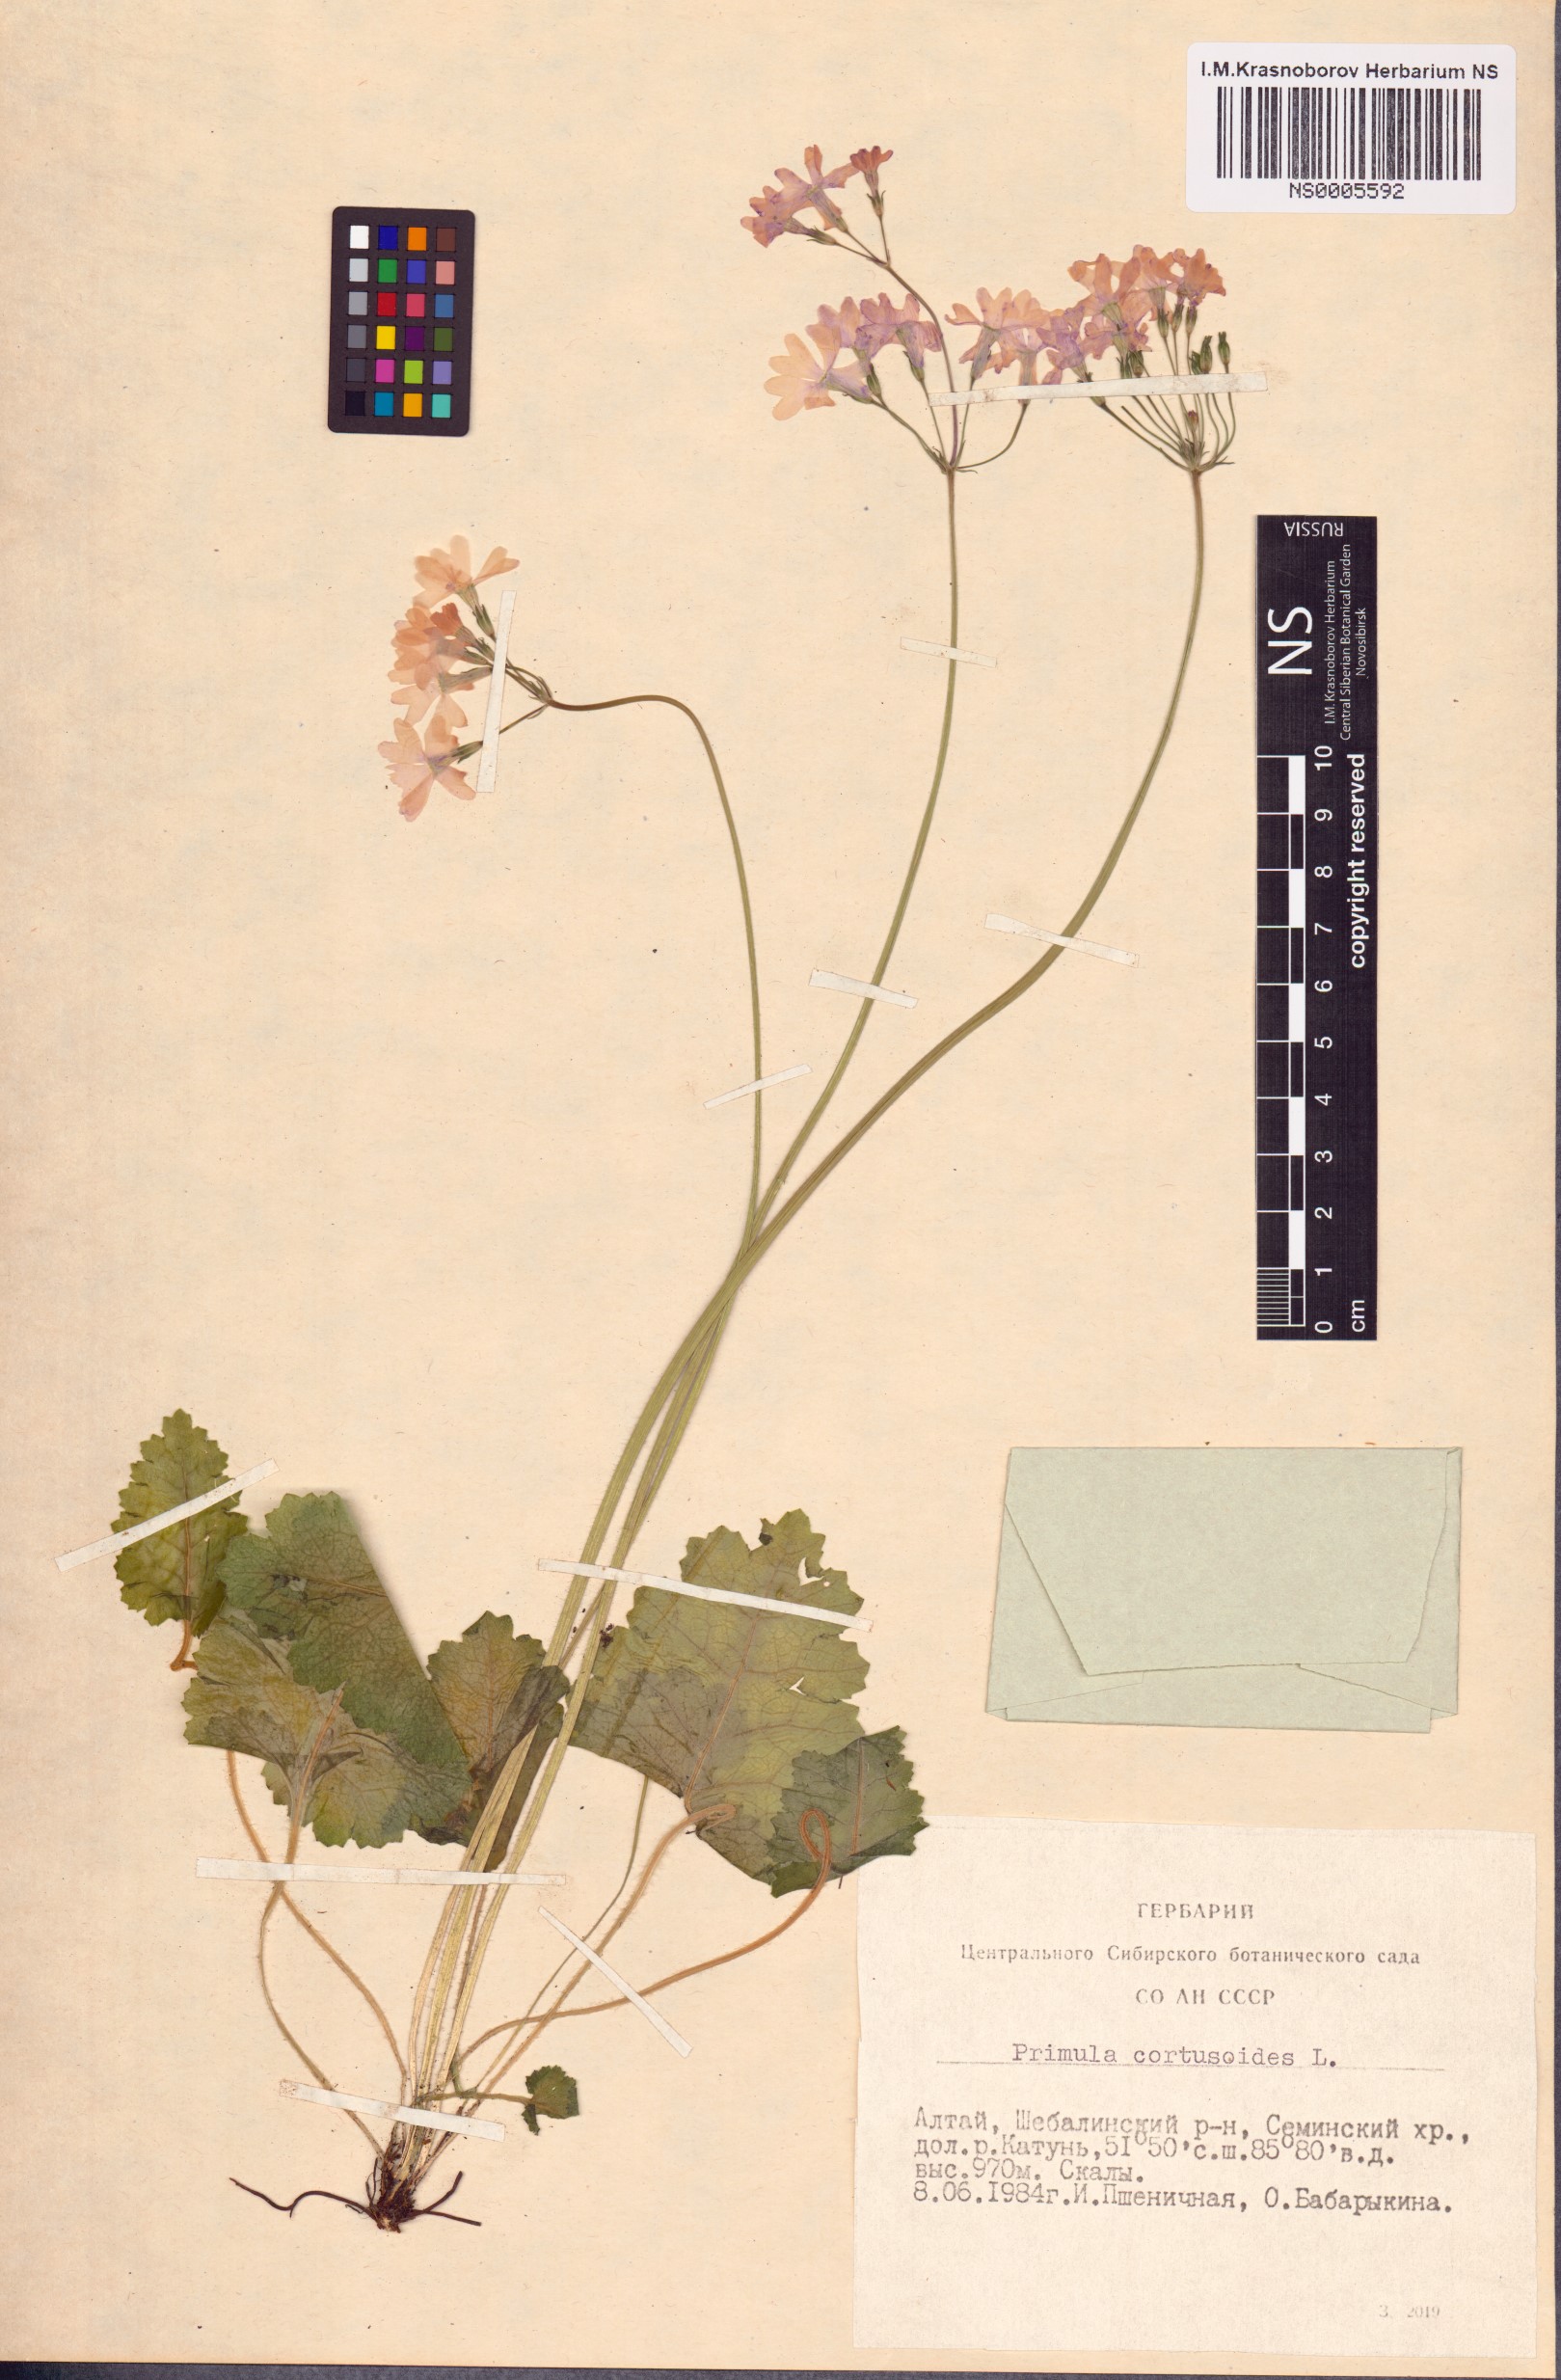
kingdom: Plantae
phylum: Tracheophyta
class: Magnoliopsida
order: Ericales
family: Primulaceae
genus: Primula
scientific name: Primula cortusoides
